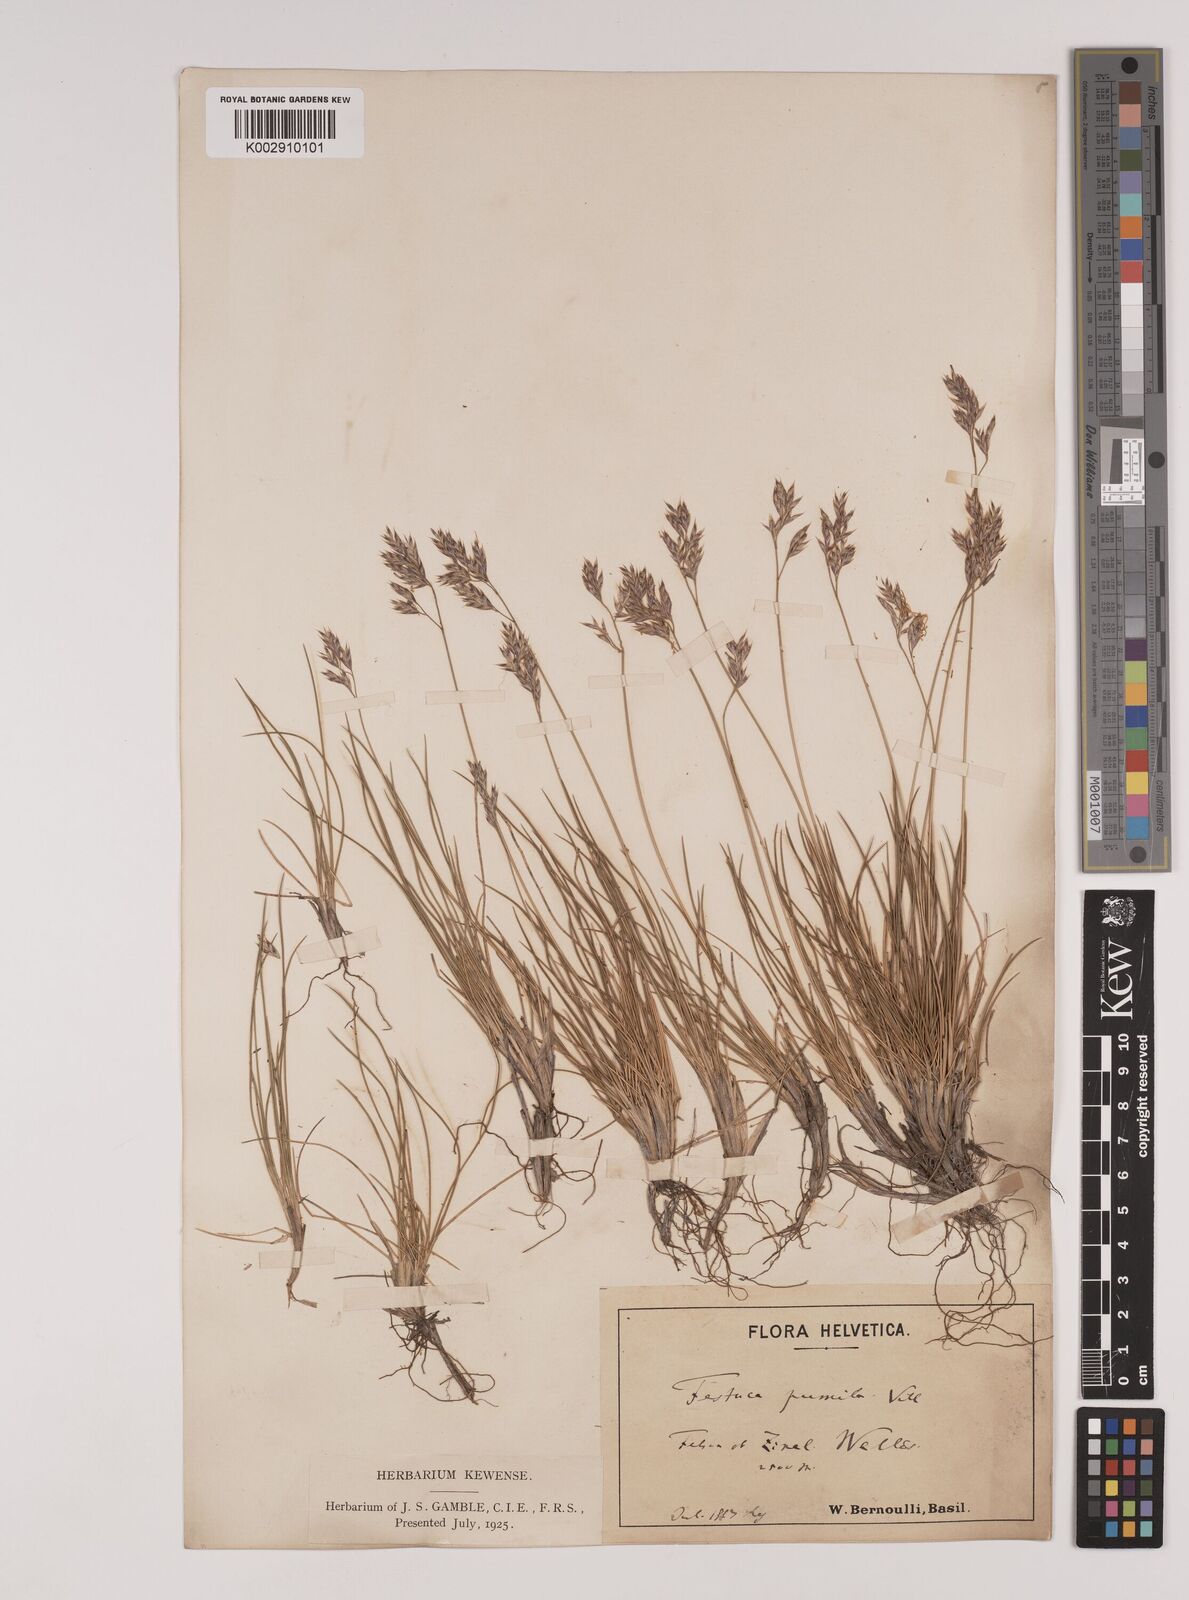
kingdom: Plantae
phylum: Tracheophyta
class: Liliopsida
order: Poales
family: Poaceae
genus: Festuca
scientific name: Festuca
